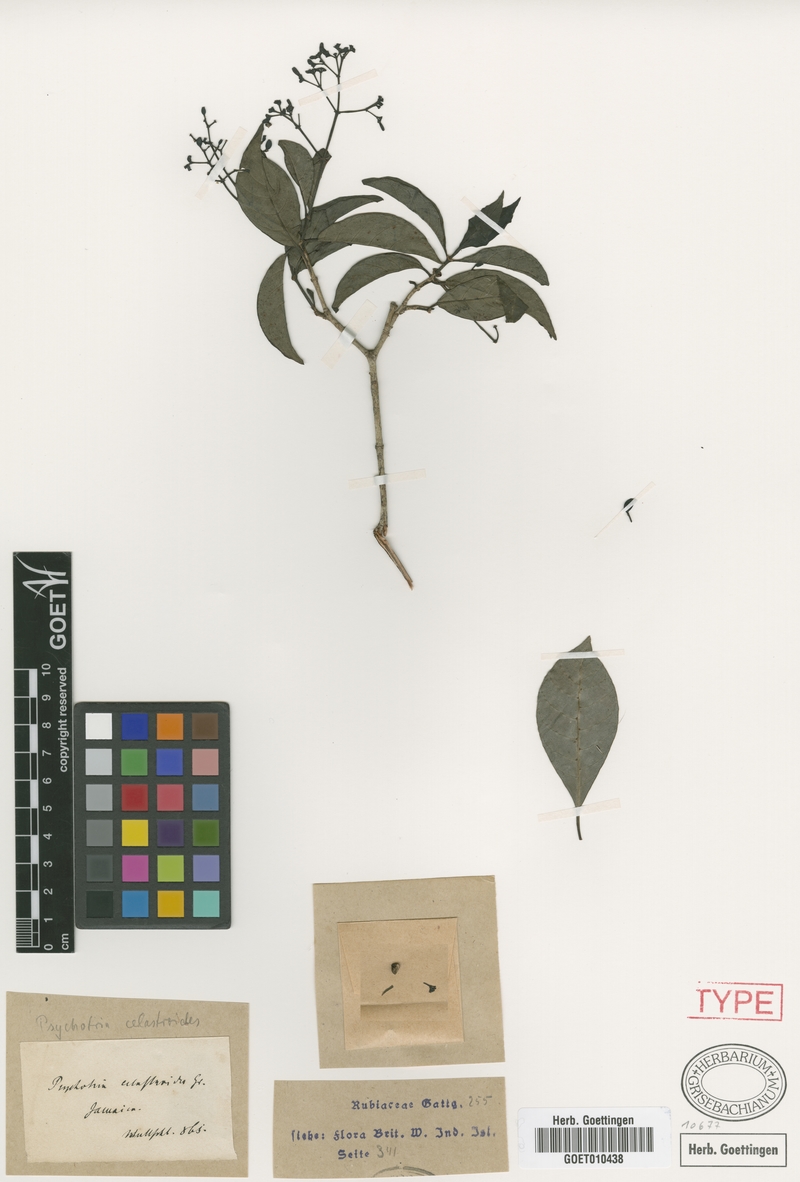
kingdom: Plantae
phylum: Tracheophyta
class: Magnoliopsida
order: Gentianales
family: Rubiaceae
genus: Psychotria
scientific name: Psychotria congesta
